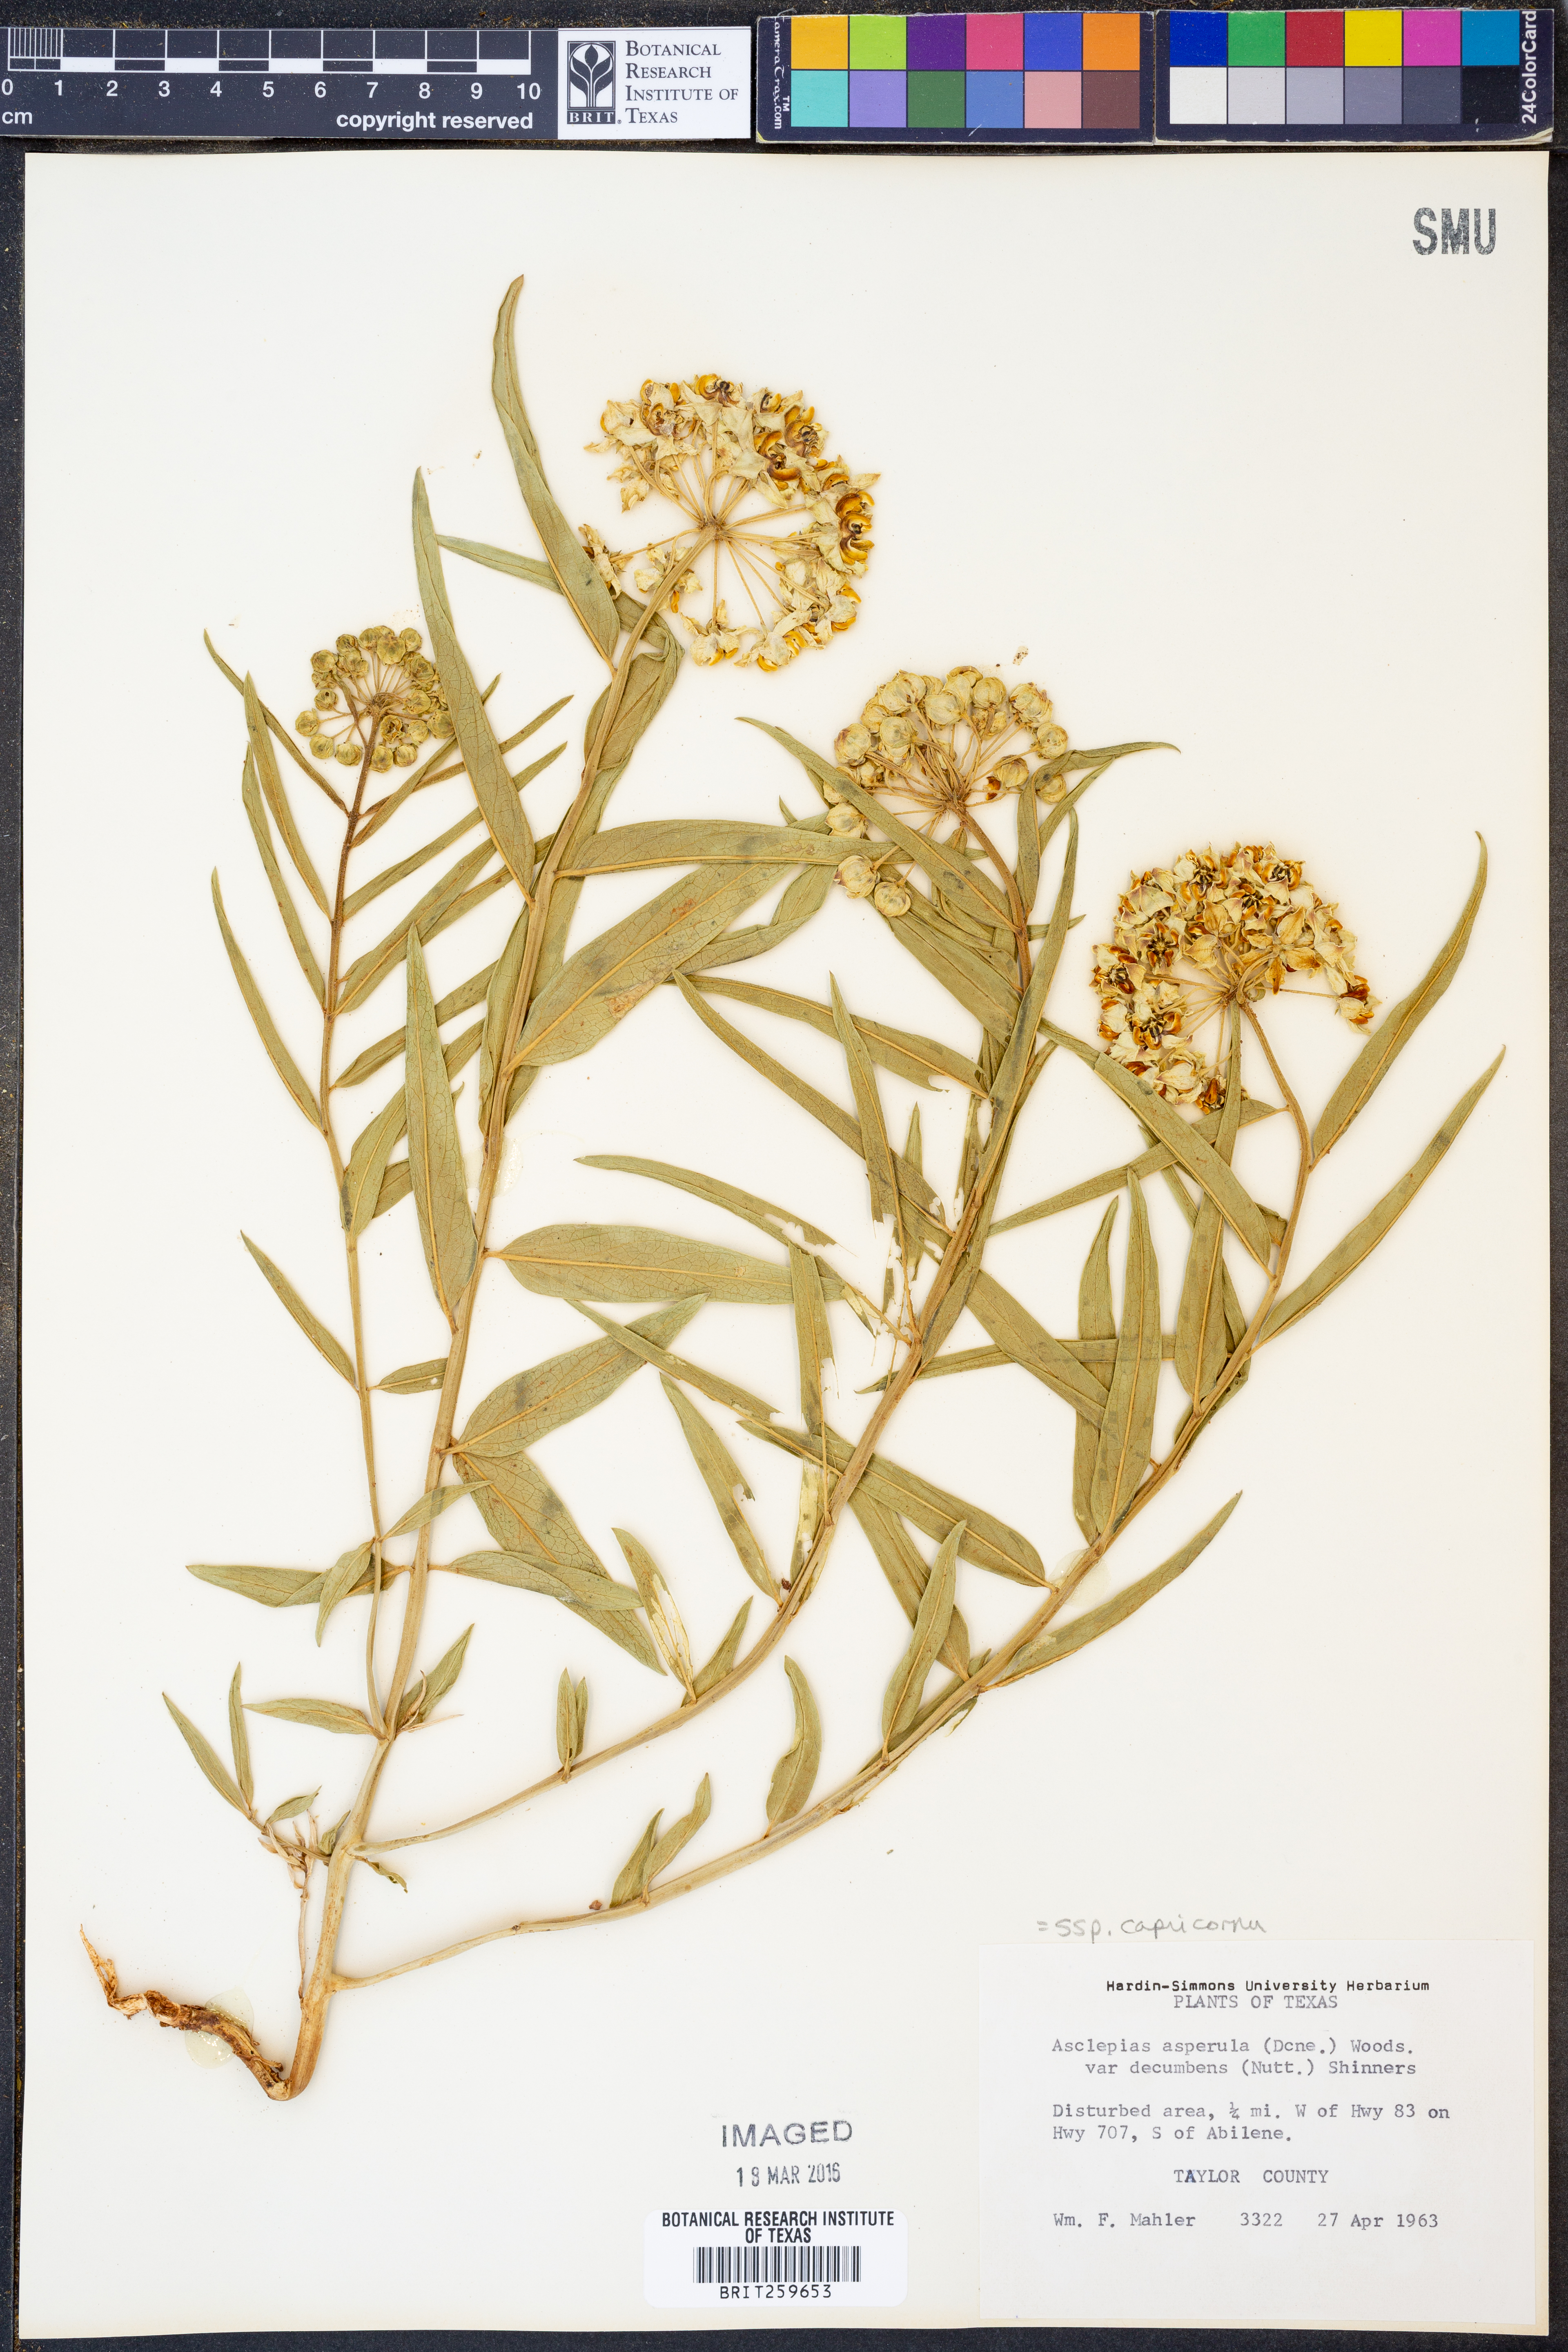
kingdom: Plantae
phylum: Tracheophyta
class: Magnoliopsida
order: Gentianales
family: Apocynaceae
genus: Asclepias
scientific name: Asclepias asperula
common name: Antelope horns
